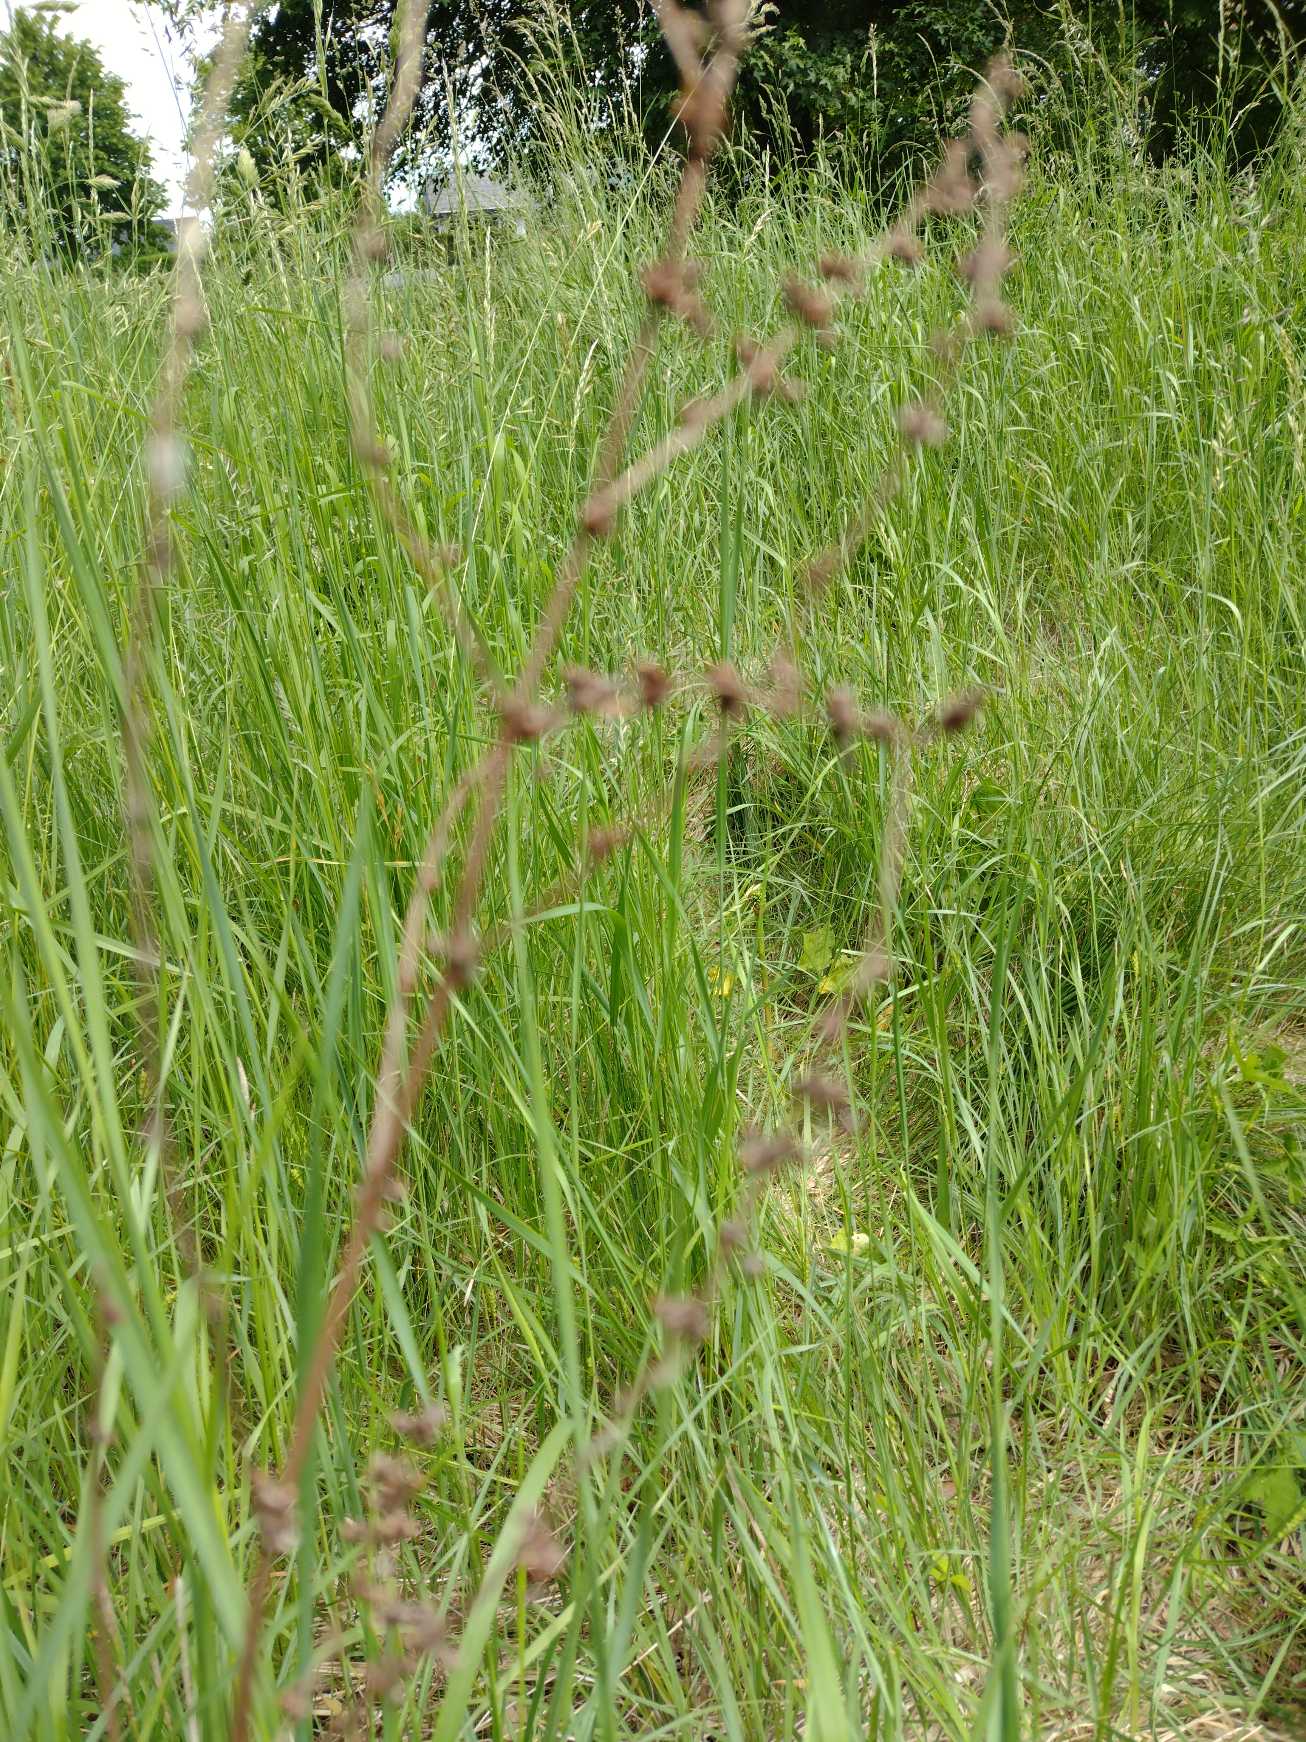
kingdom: Plantae
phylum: Tracheophyta
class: Magnoliopsida
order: Caryophyllales
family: Polygonaceae
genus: Rumex
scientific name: Rumex acetosa
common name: Almindelig syre
